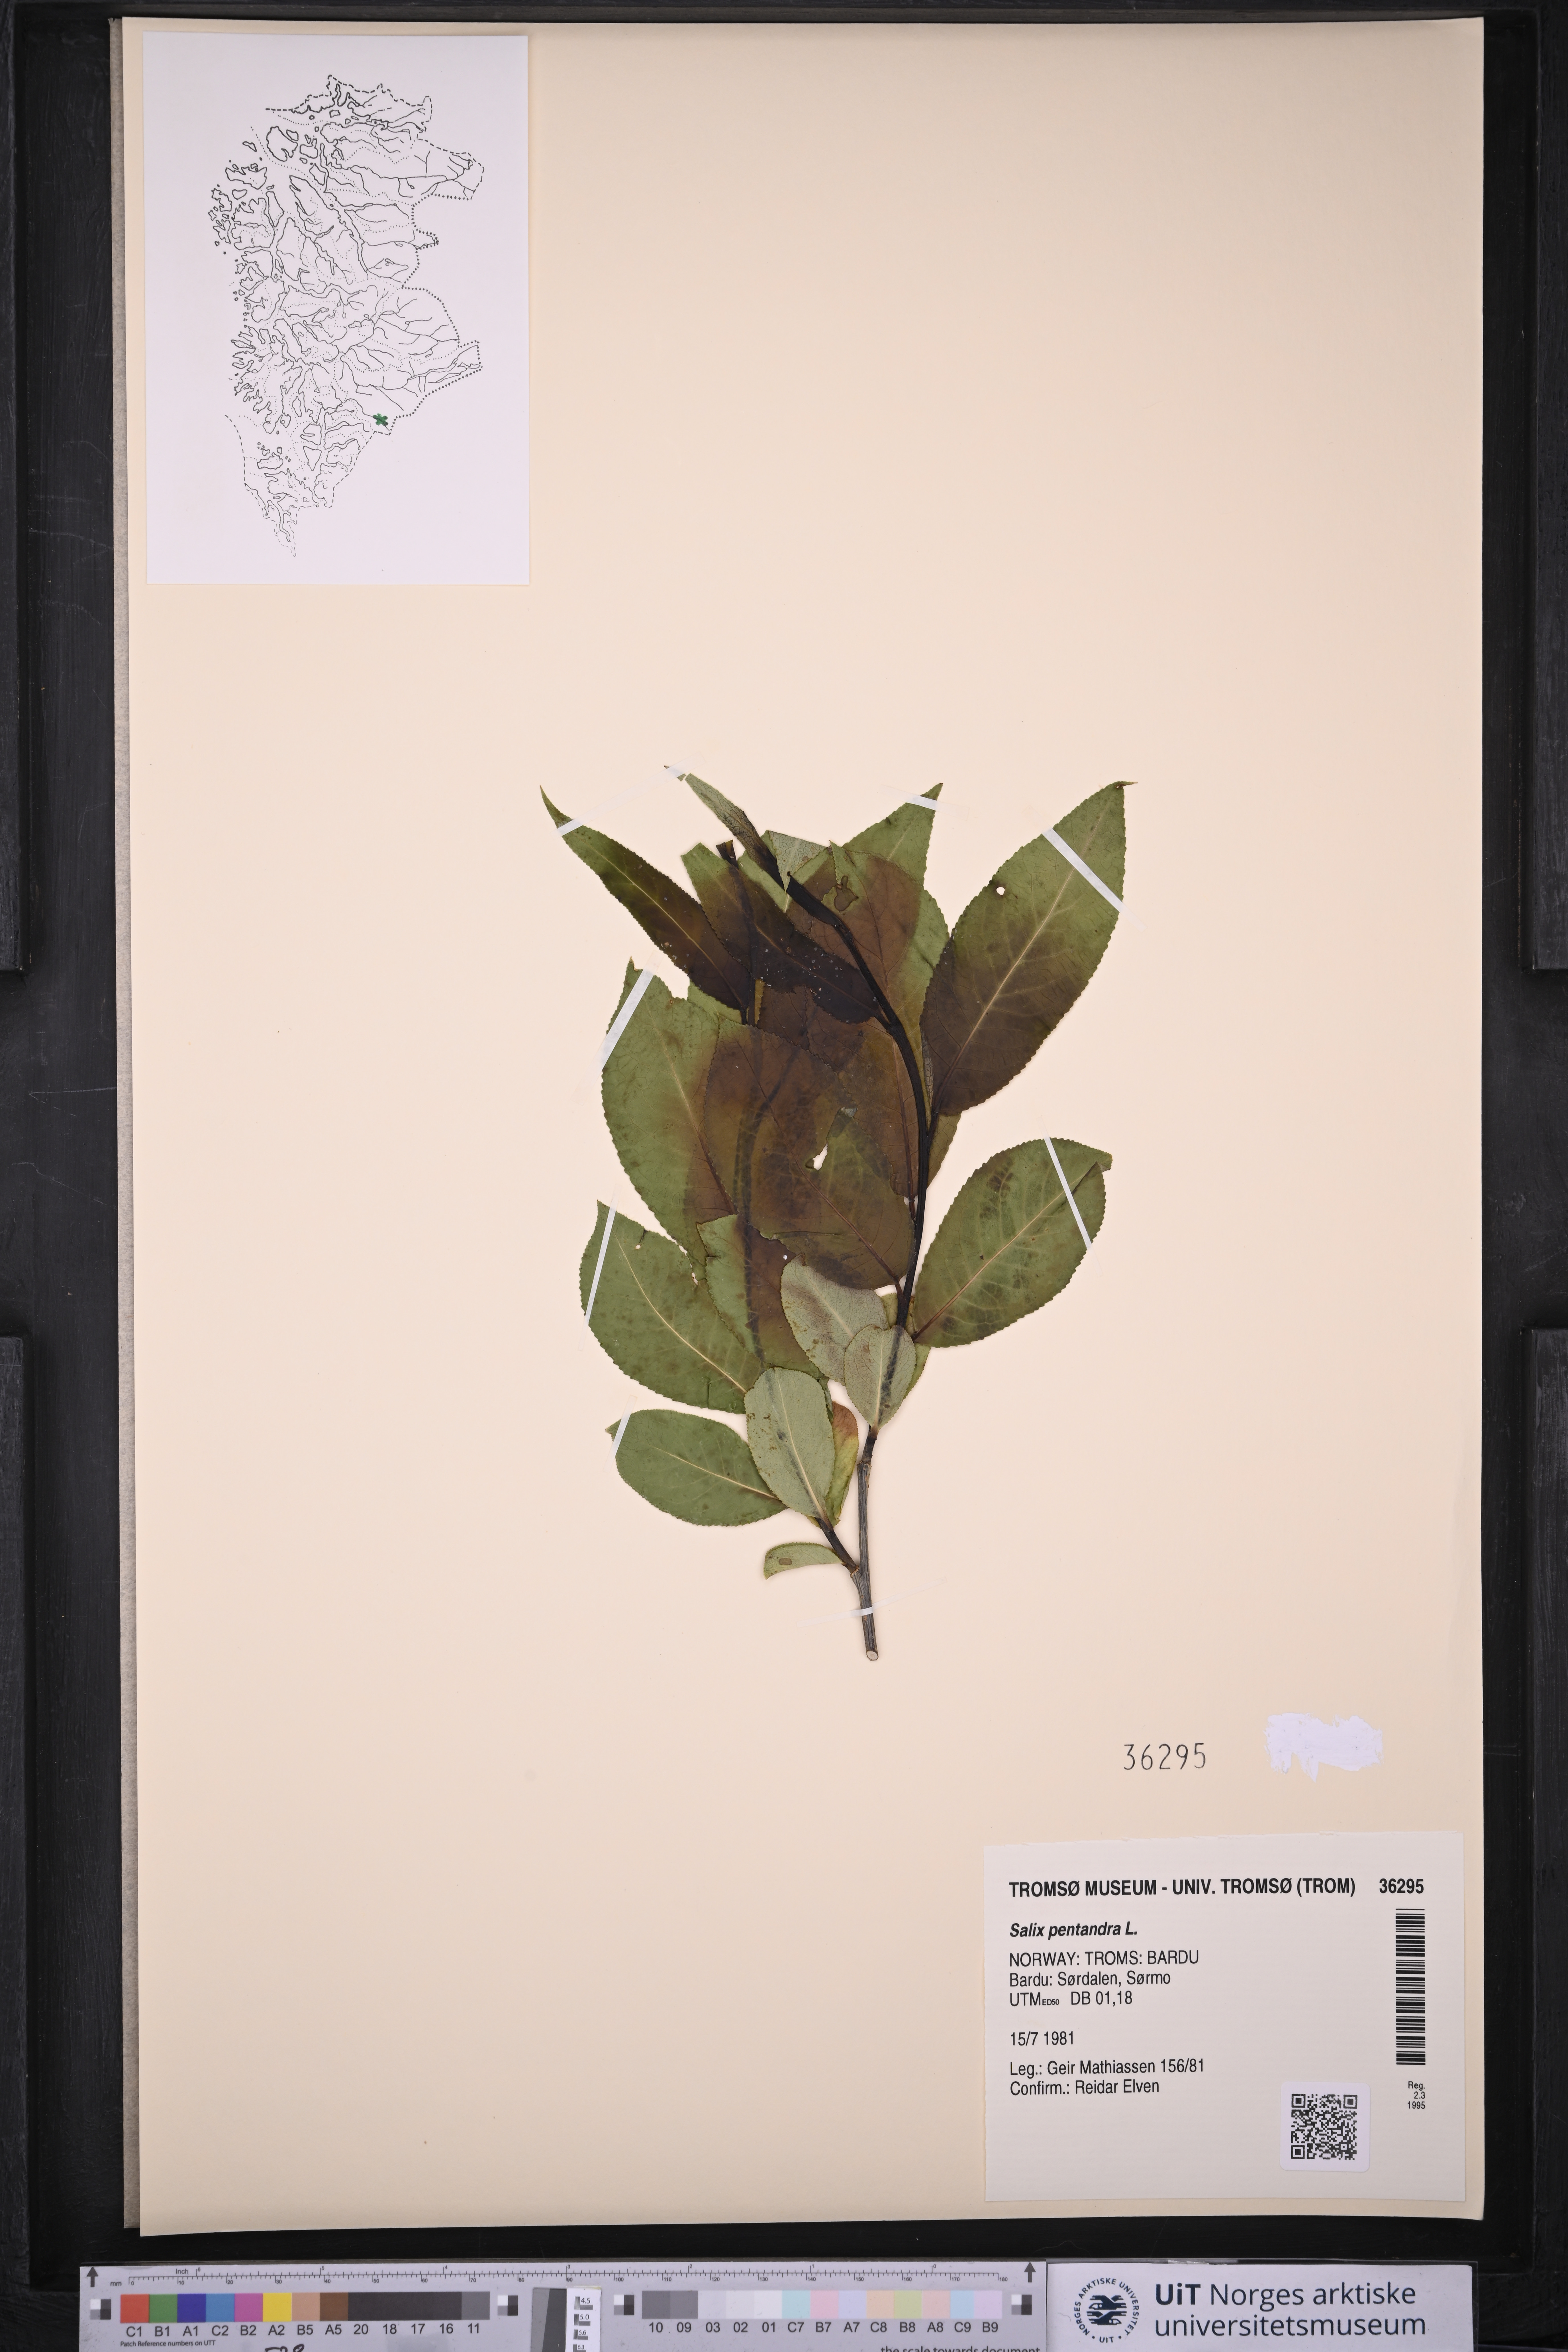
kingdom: Plantae
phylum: Tracheophyta
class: Magnoliopsida
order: Malpighiales
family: Salicaceae
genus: Salix
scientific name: Salix pentandra
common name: Bay willow
